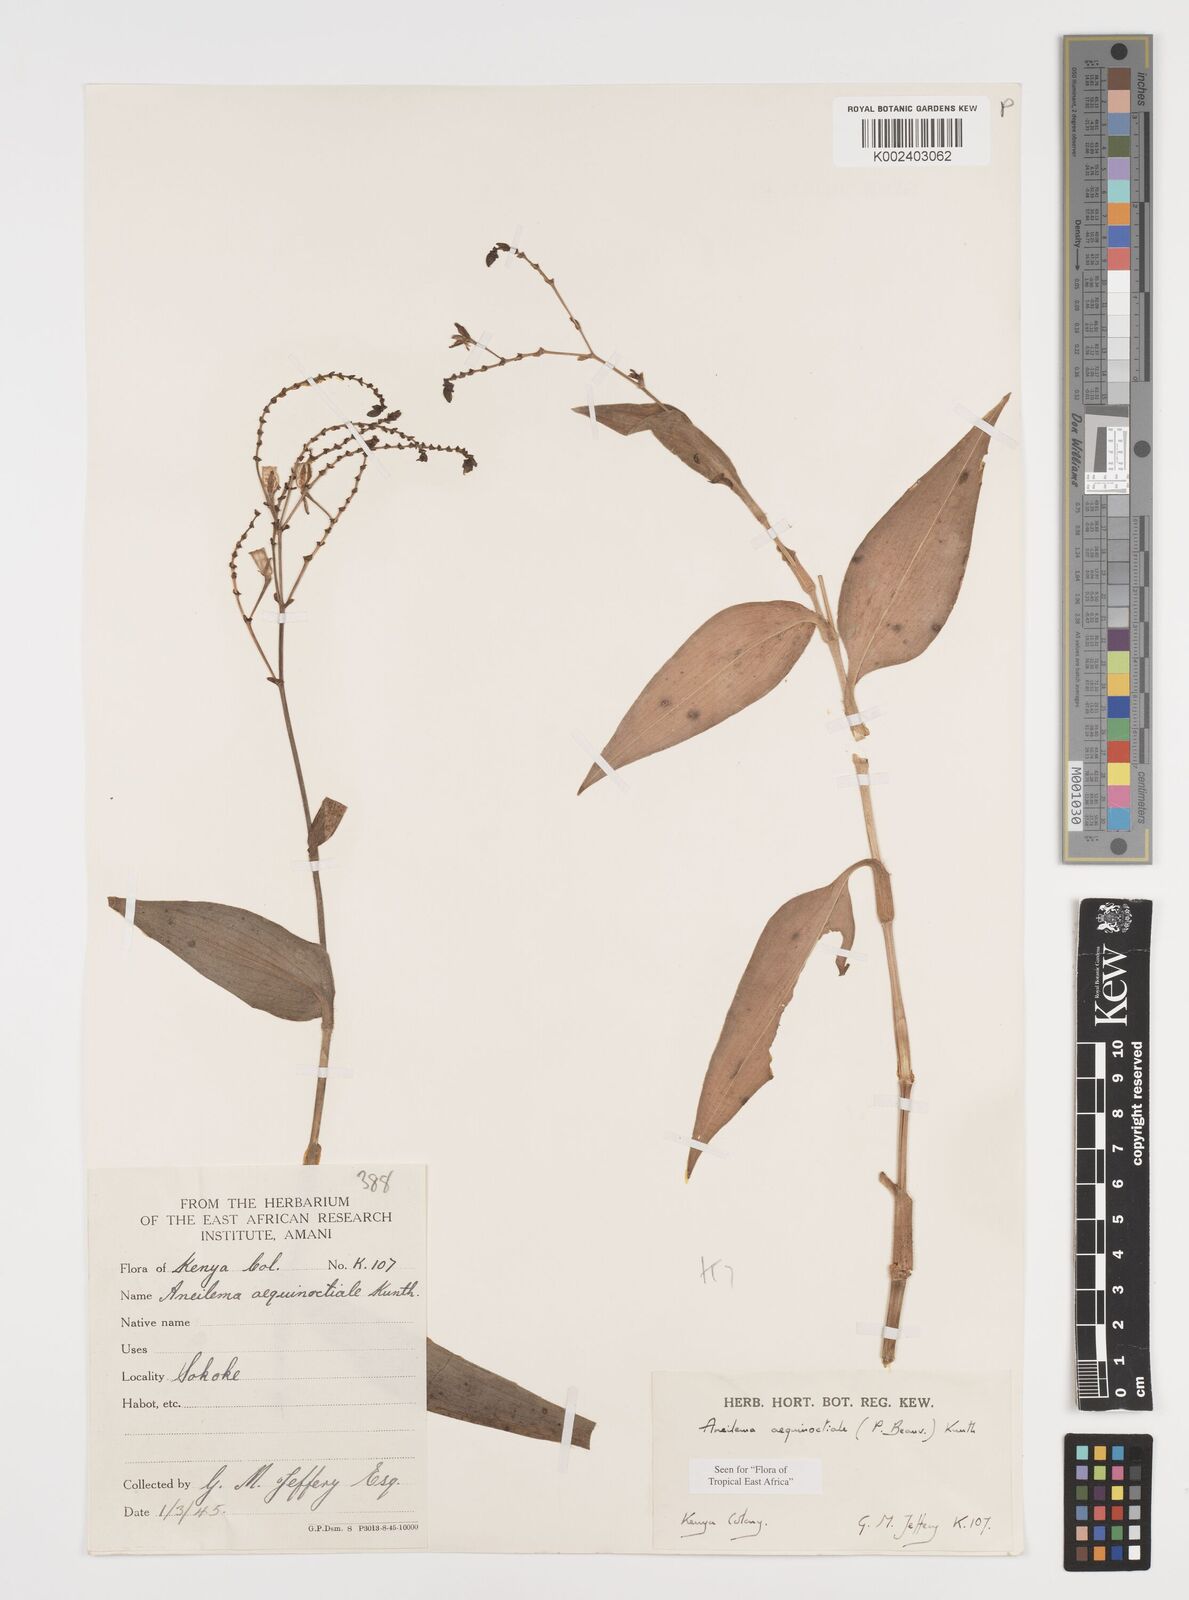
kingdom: Plantae
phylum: Tracheophyta
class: Liliopsida
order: Commelinales
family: Commelinaceae
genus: Aneilema
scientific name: Aneilema aequinoctiale
